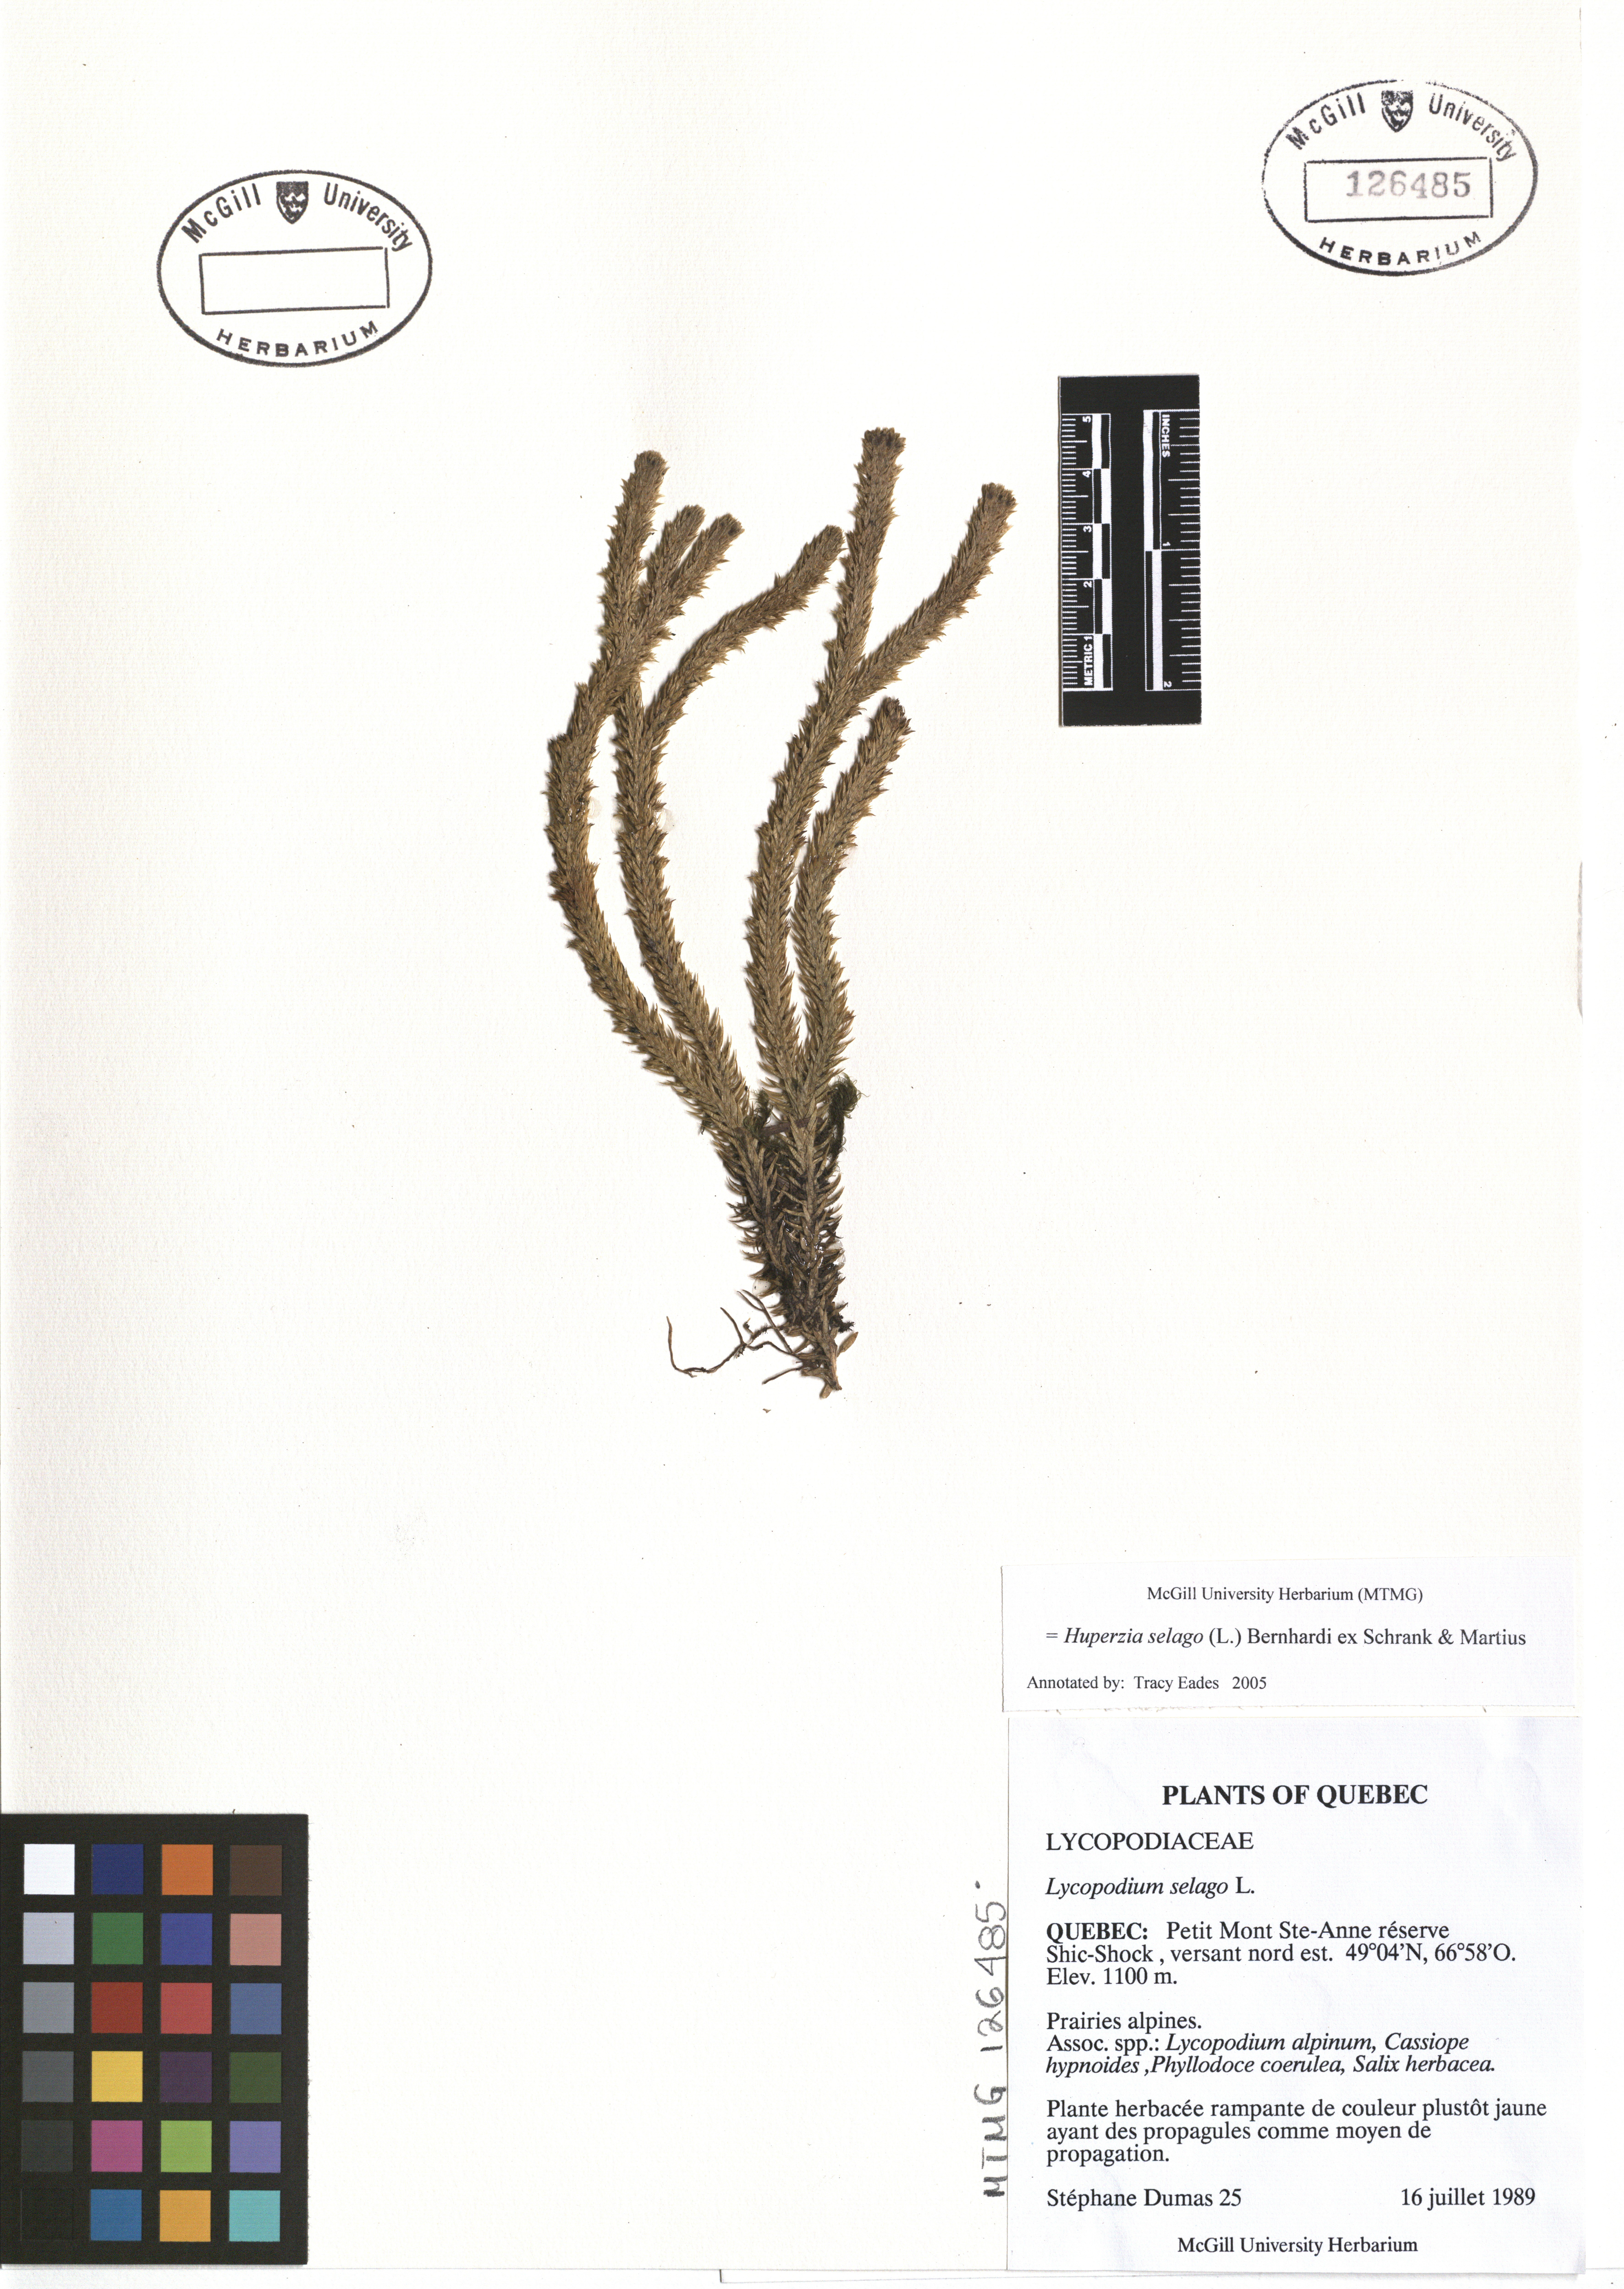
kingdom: Plantae
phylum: Tracheophyta
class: Lycopodiopsida
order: Lycopodiales
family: Lycopodiaceae
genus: Huperzia
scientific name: Huperzia selago
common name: Northern firmoss
